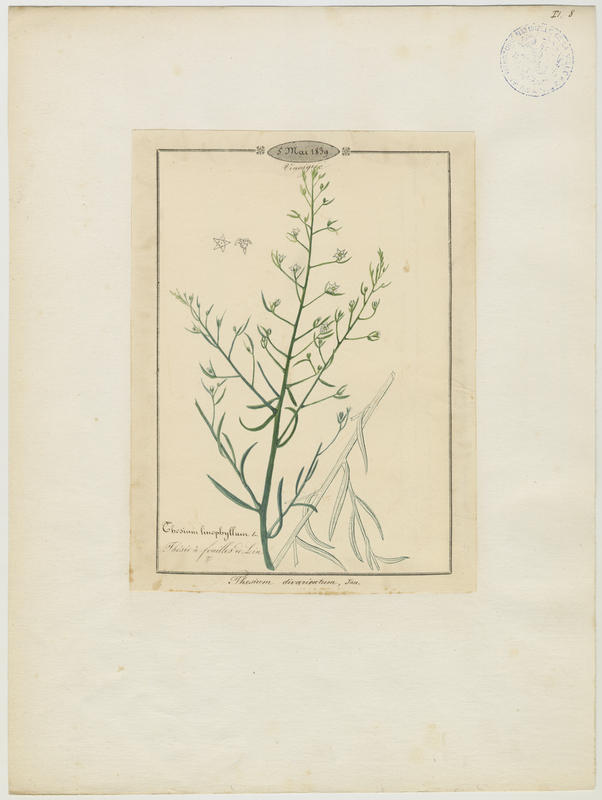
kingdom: Plantae
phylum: Tracheophyta
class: Magnoliopsida
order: Santalales
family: Thesiaceae
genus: Thesium
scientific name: Thesium divaricatum
